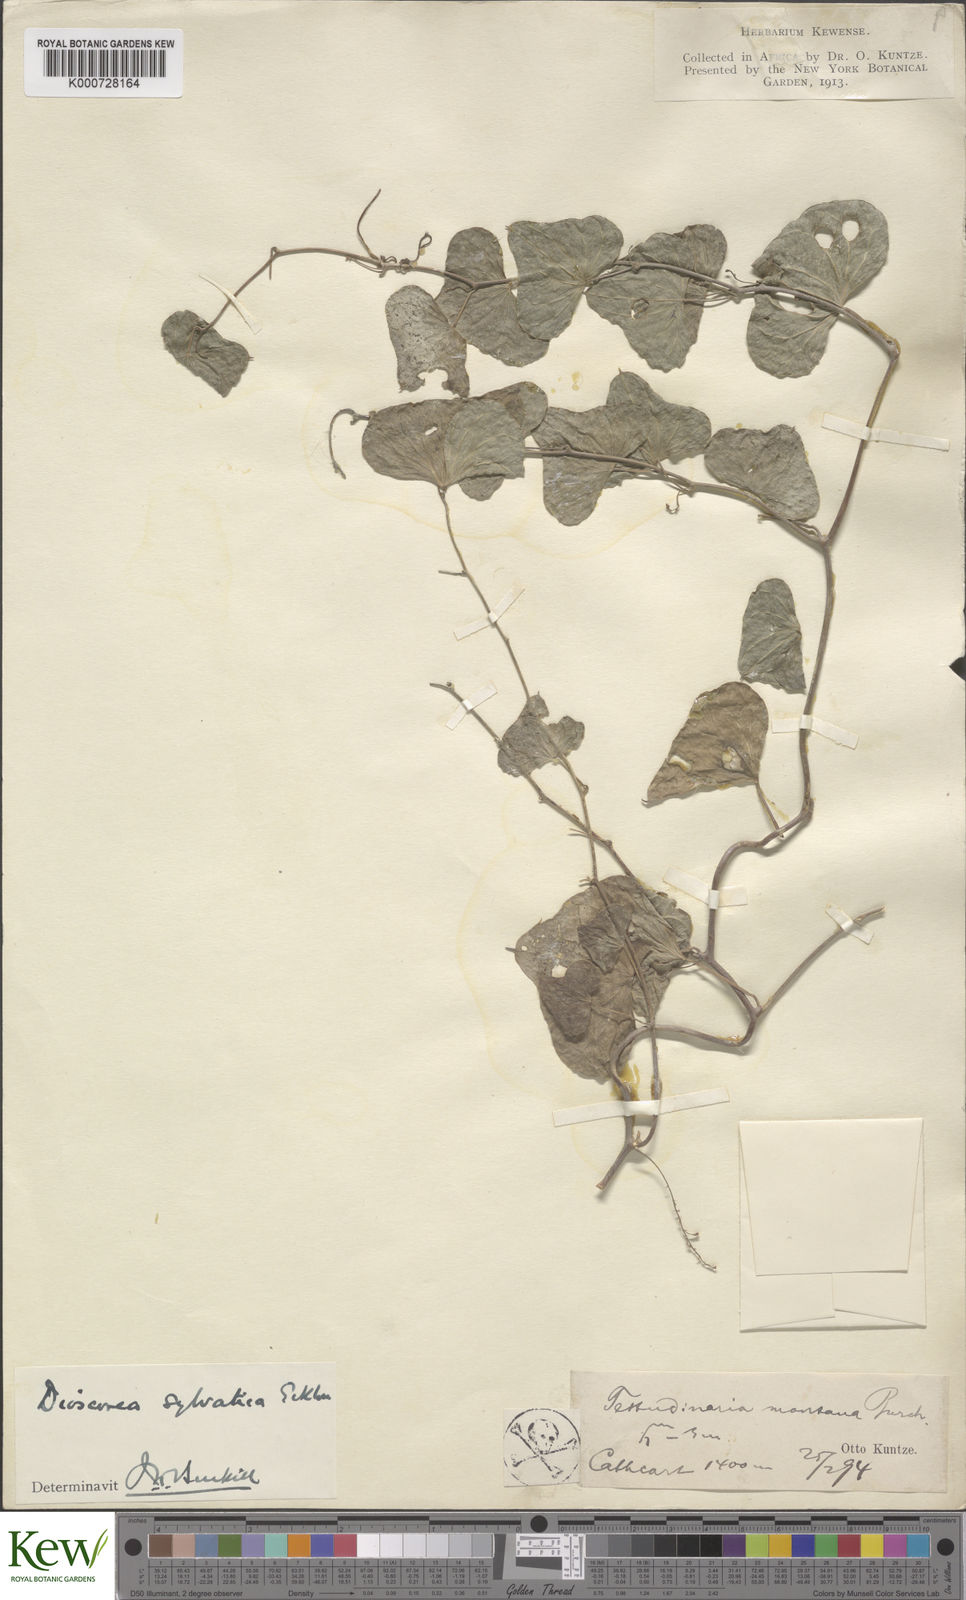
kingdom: Plantae
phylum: Tracheophyta
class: Liliopsida
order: Dioscoreales
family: Dioscoreaceae
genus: Dioscorea
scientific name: Dioscorea sylvatica
